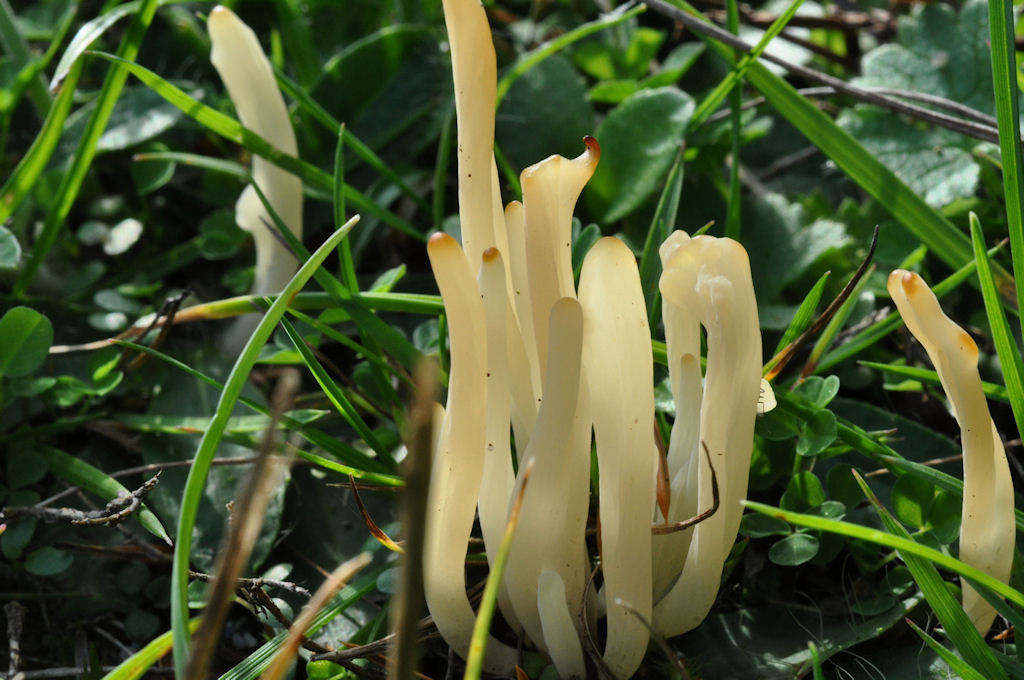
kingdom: Fungi
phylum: Basidiomycota
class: Agaricomycetes
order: Agaricales
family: Clavariaceae
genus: Clavaria
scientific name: Clavaria falcata
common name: hvid køllesvamp
